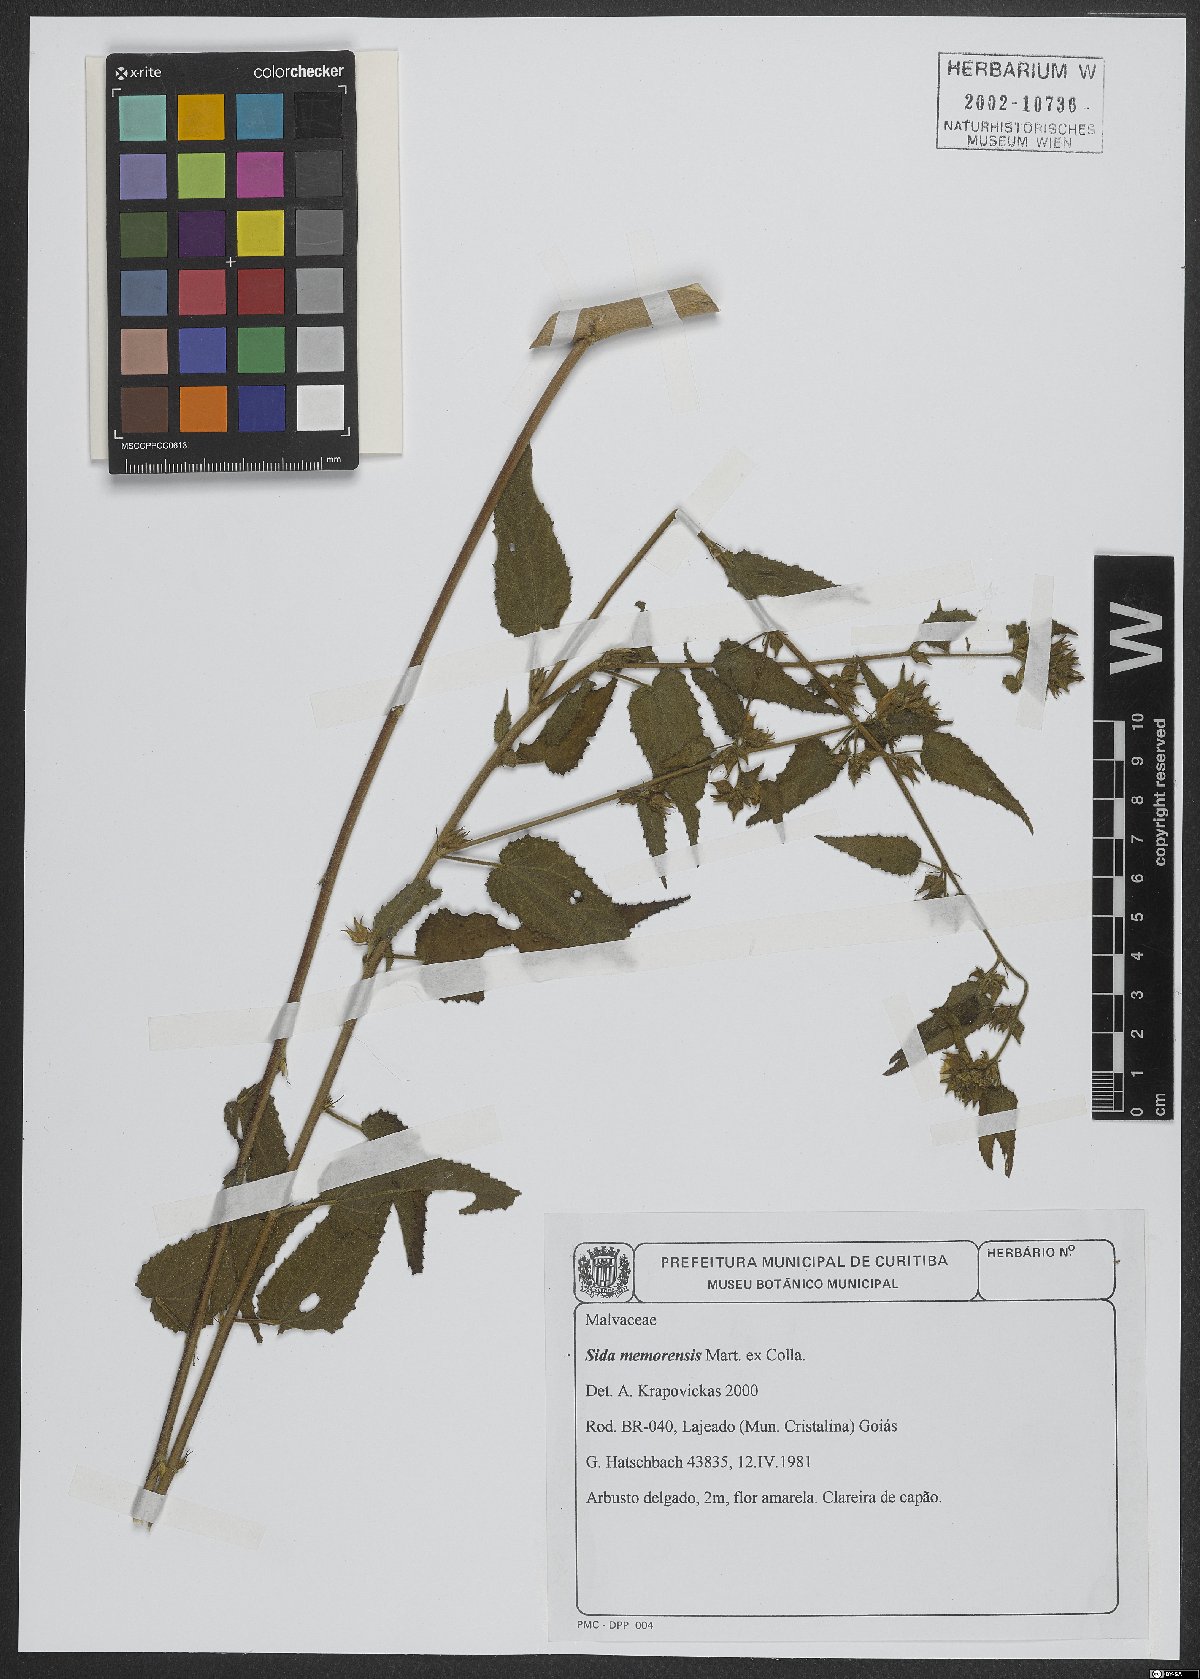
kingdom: Plantae
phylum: Tracheophyta
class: Magnoliopsida
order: Malvales
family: Malvaceae
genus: Sida
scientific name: Sida nemorensis
